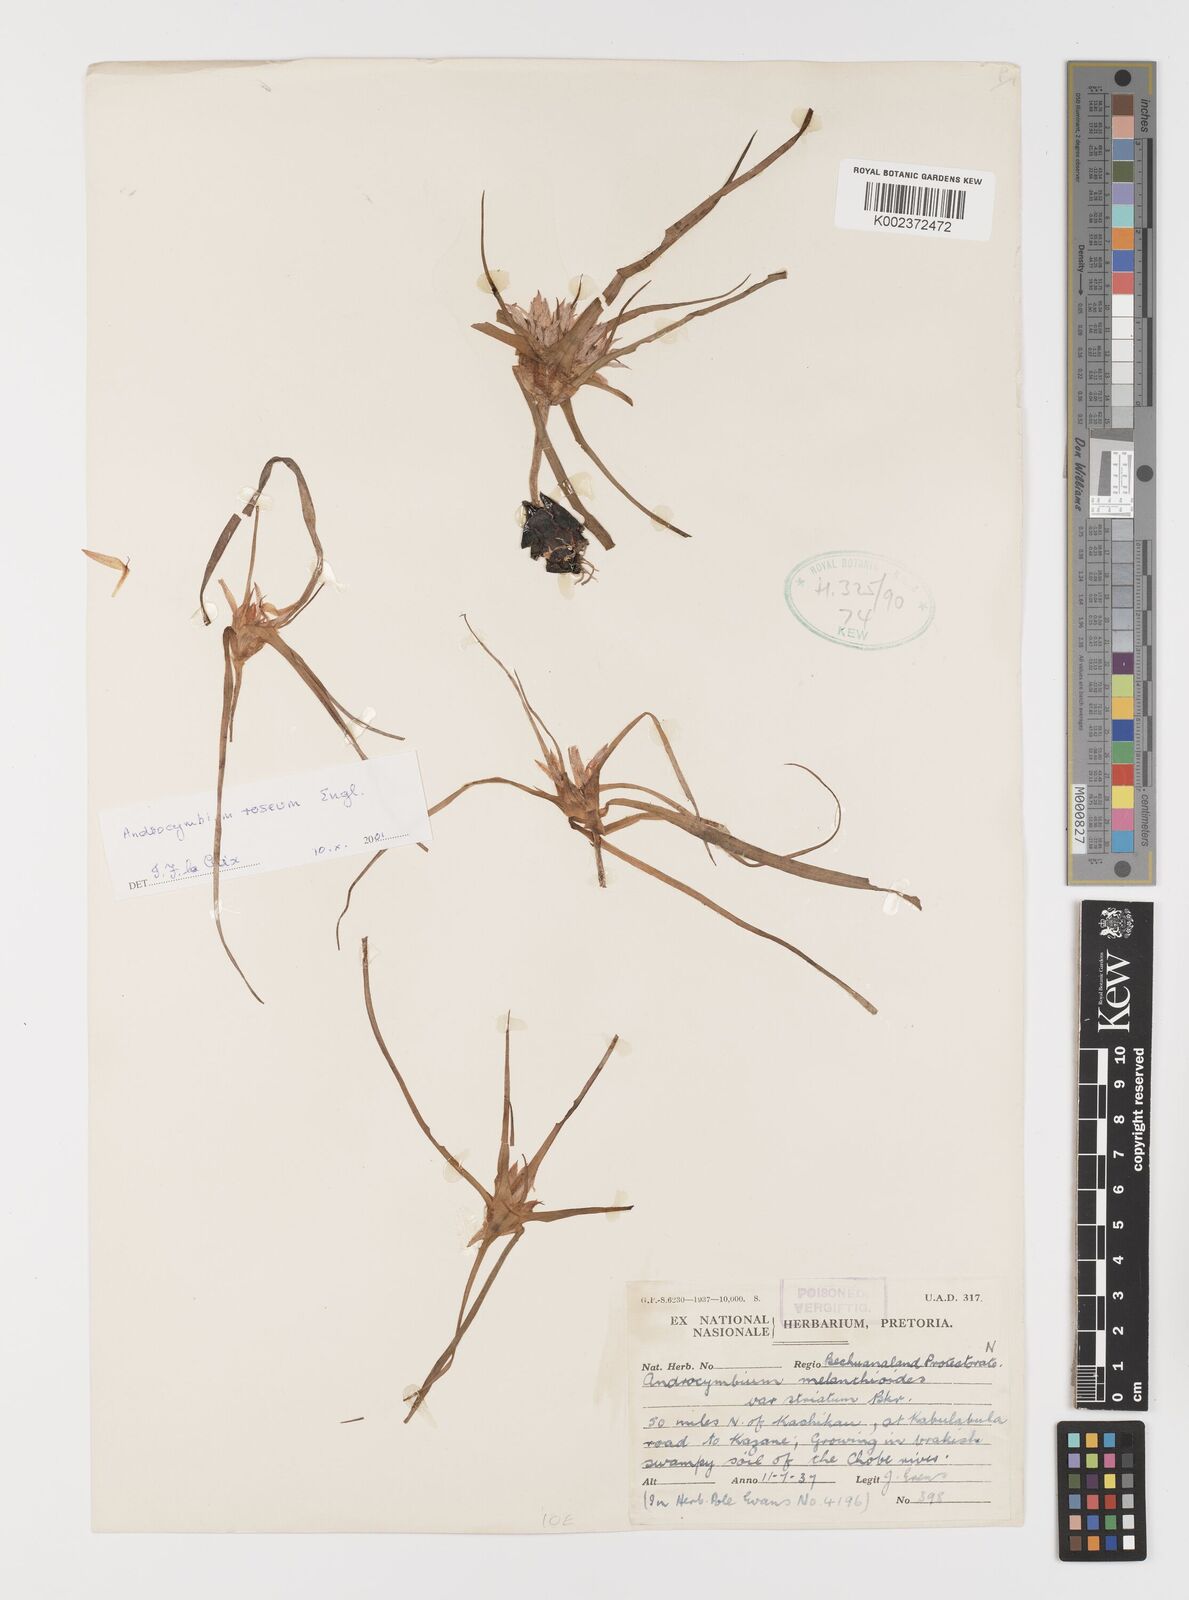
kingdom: Plantae
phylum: Tracheophyta
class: Liliopsida
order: Liliales
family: Colchicaceae
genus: Colchicum
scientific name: Colchicum roseum
